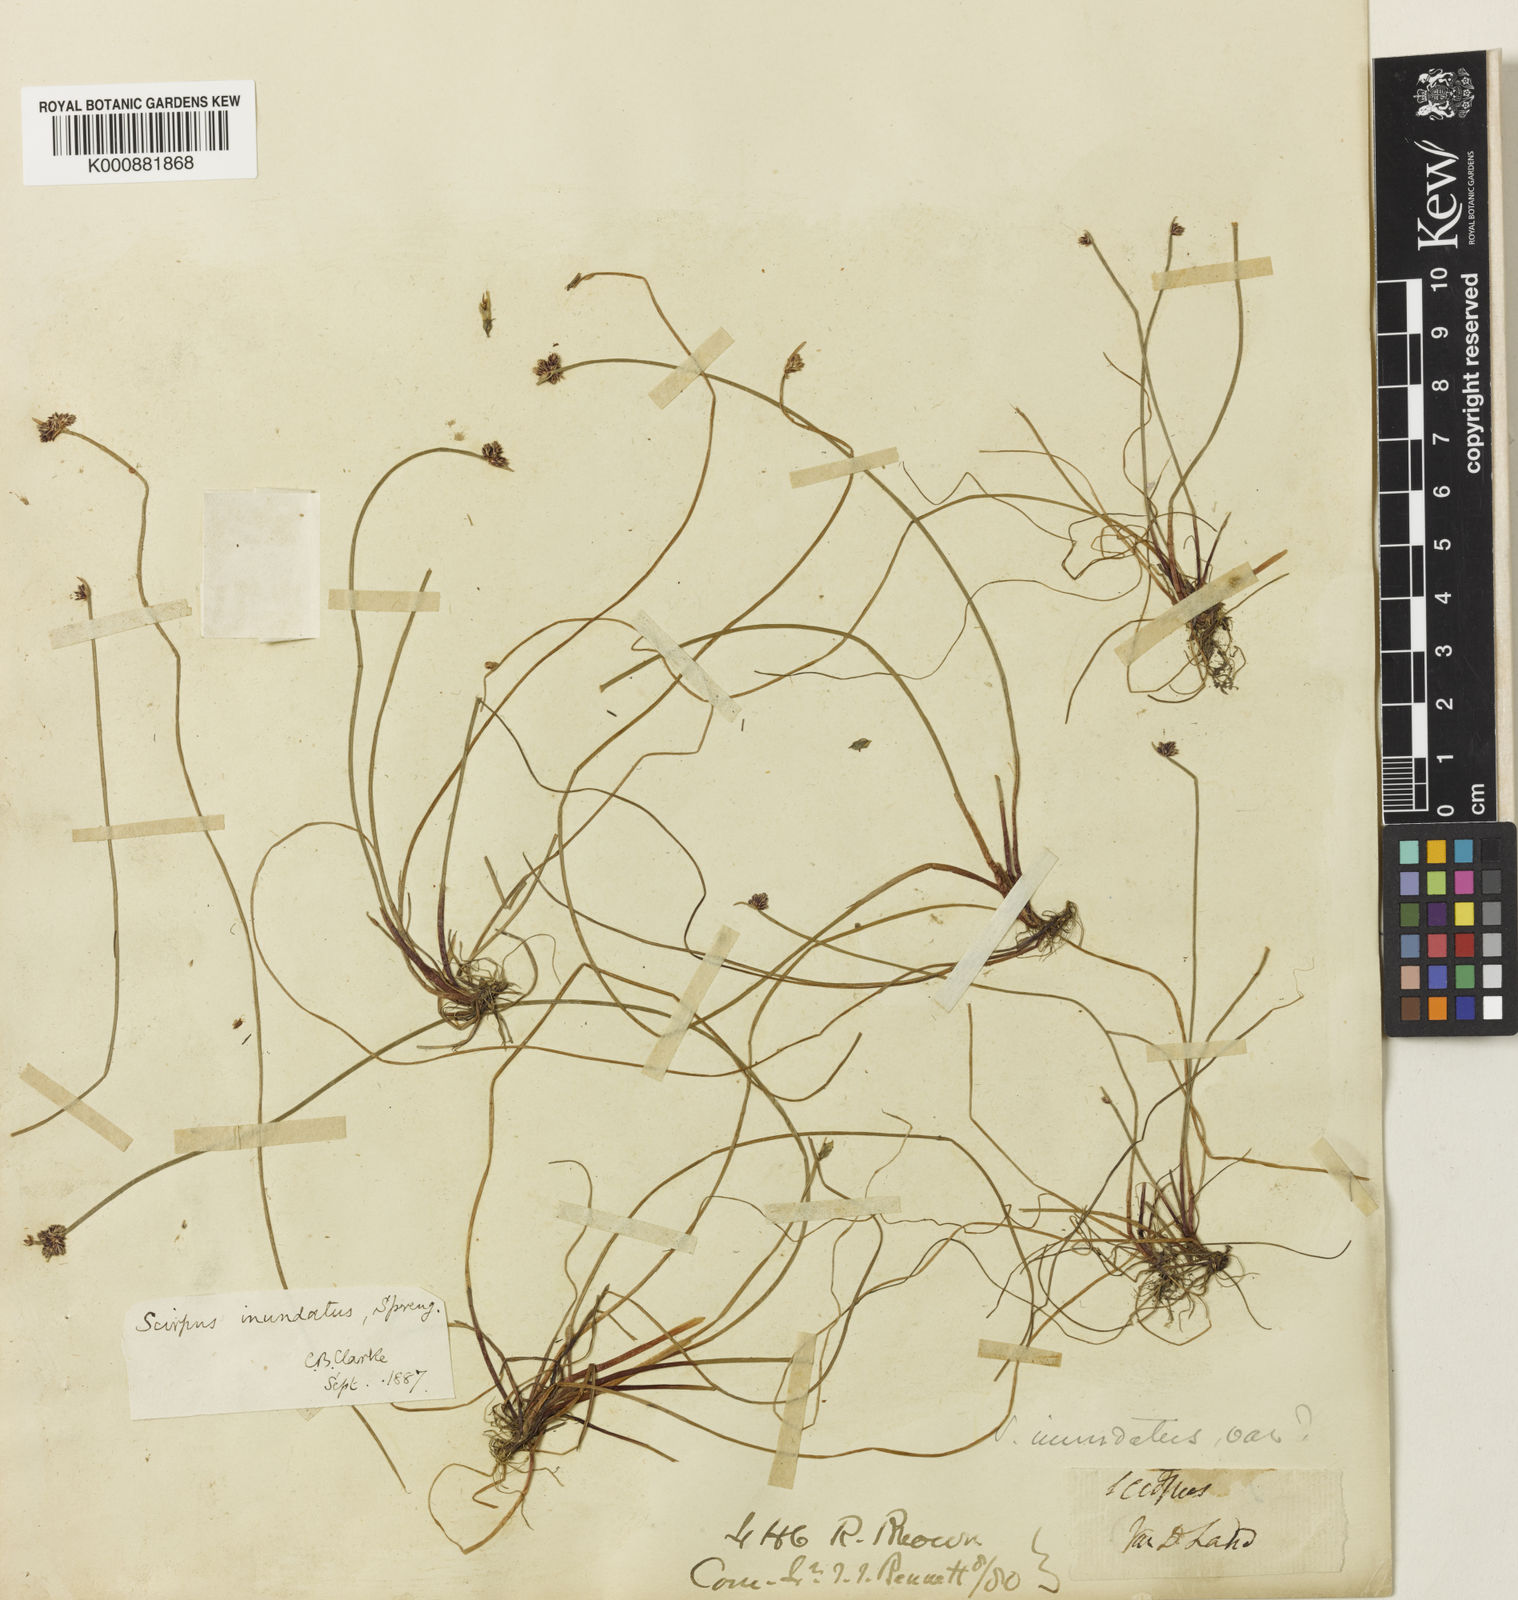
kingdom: Plantae
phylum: Tracheophyta
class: Liliopsida
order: Poales
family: Cyperaceae
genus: Isolepis
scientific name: Isolepis inundata
